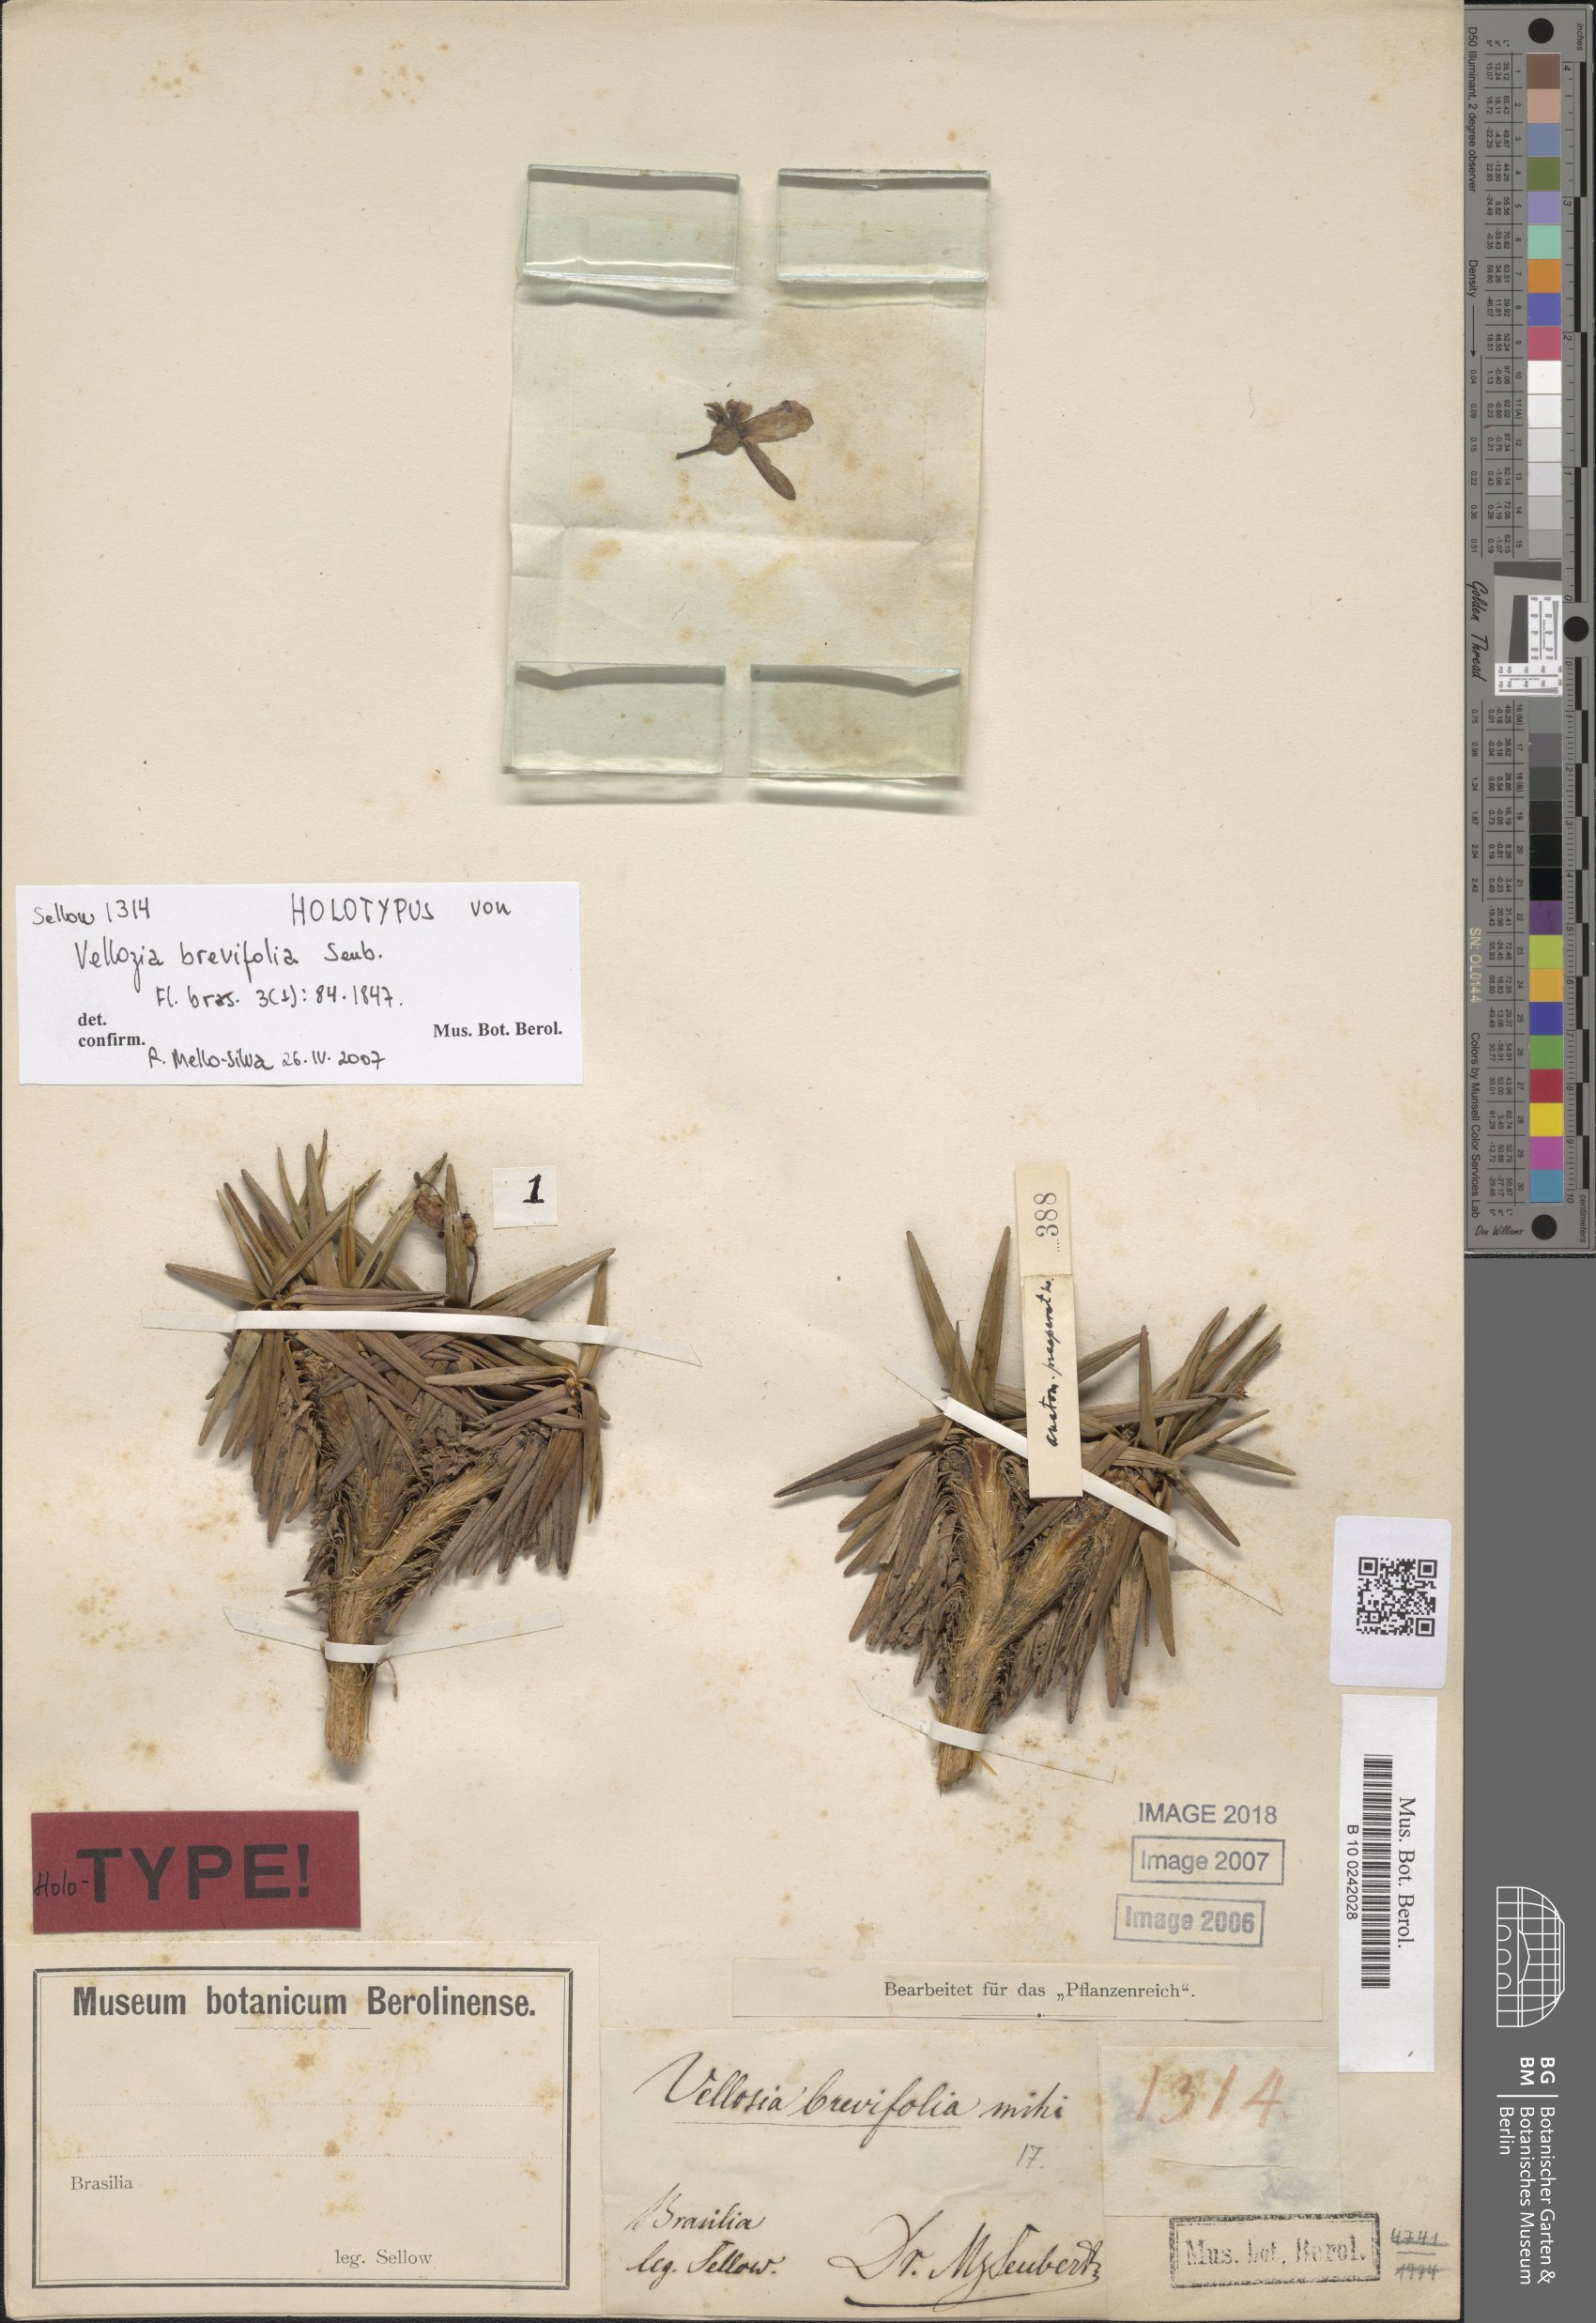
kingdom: Plantae
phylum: Tracheophyta
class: Liliopsida
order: Pandanales
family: Velloziaceae
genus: Vellozia
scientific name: Vellozia brevifolia
